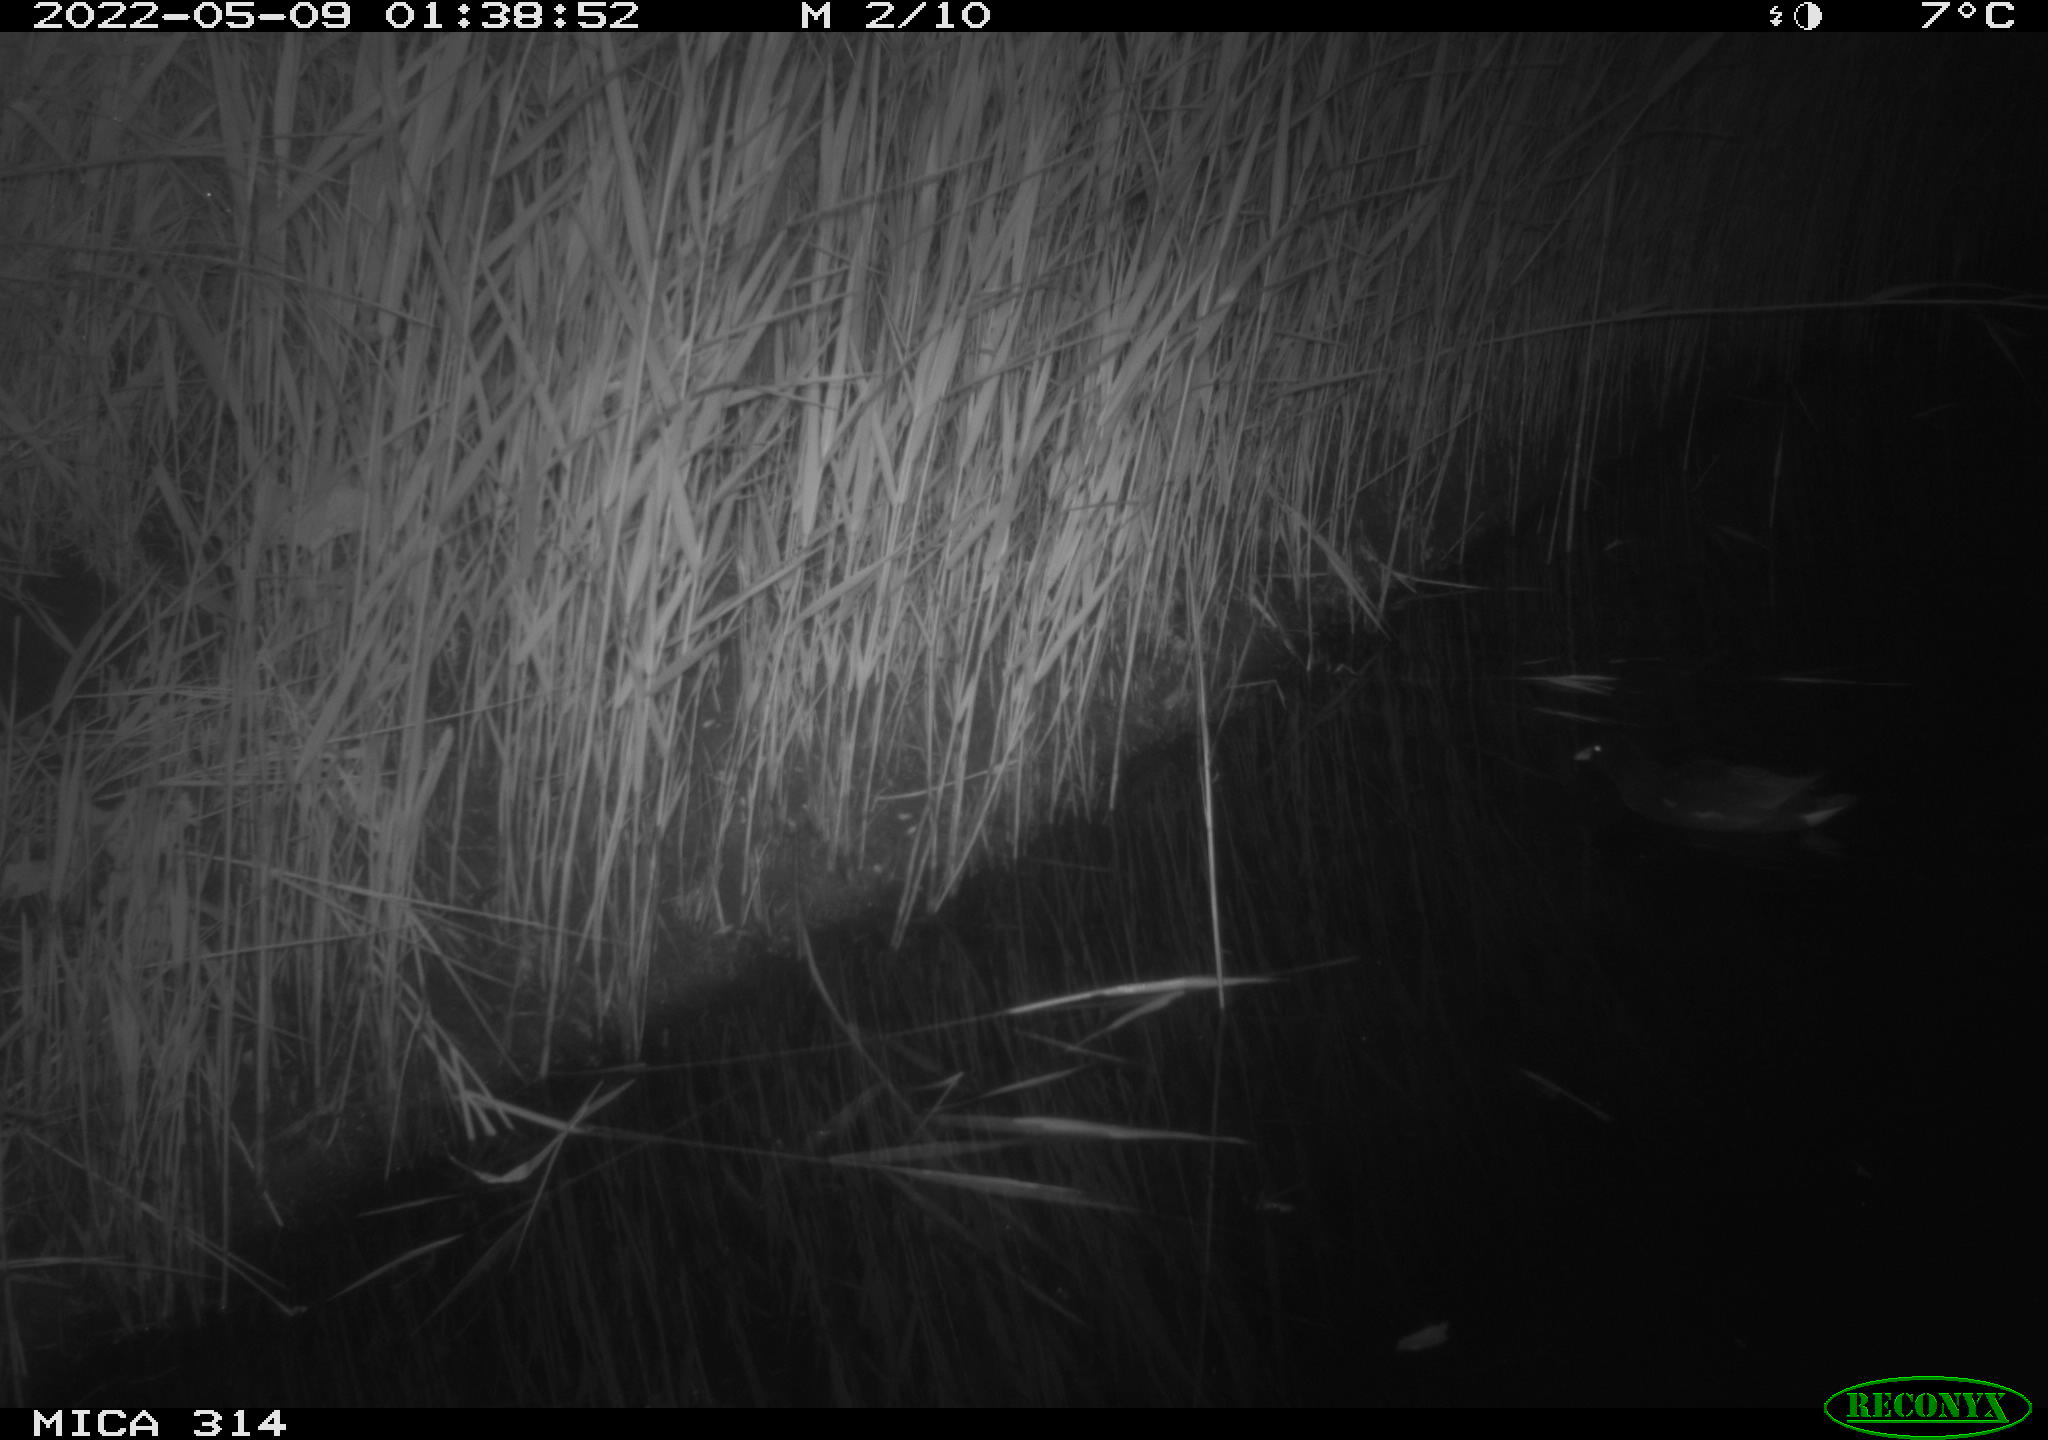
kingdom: Animalia
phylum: Chordata
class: Aves
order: Gruiformes
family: Rallidae
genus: Gallinula
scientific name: Gallinula chloropus
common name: Common moorhen
